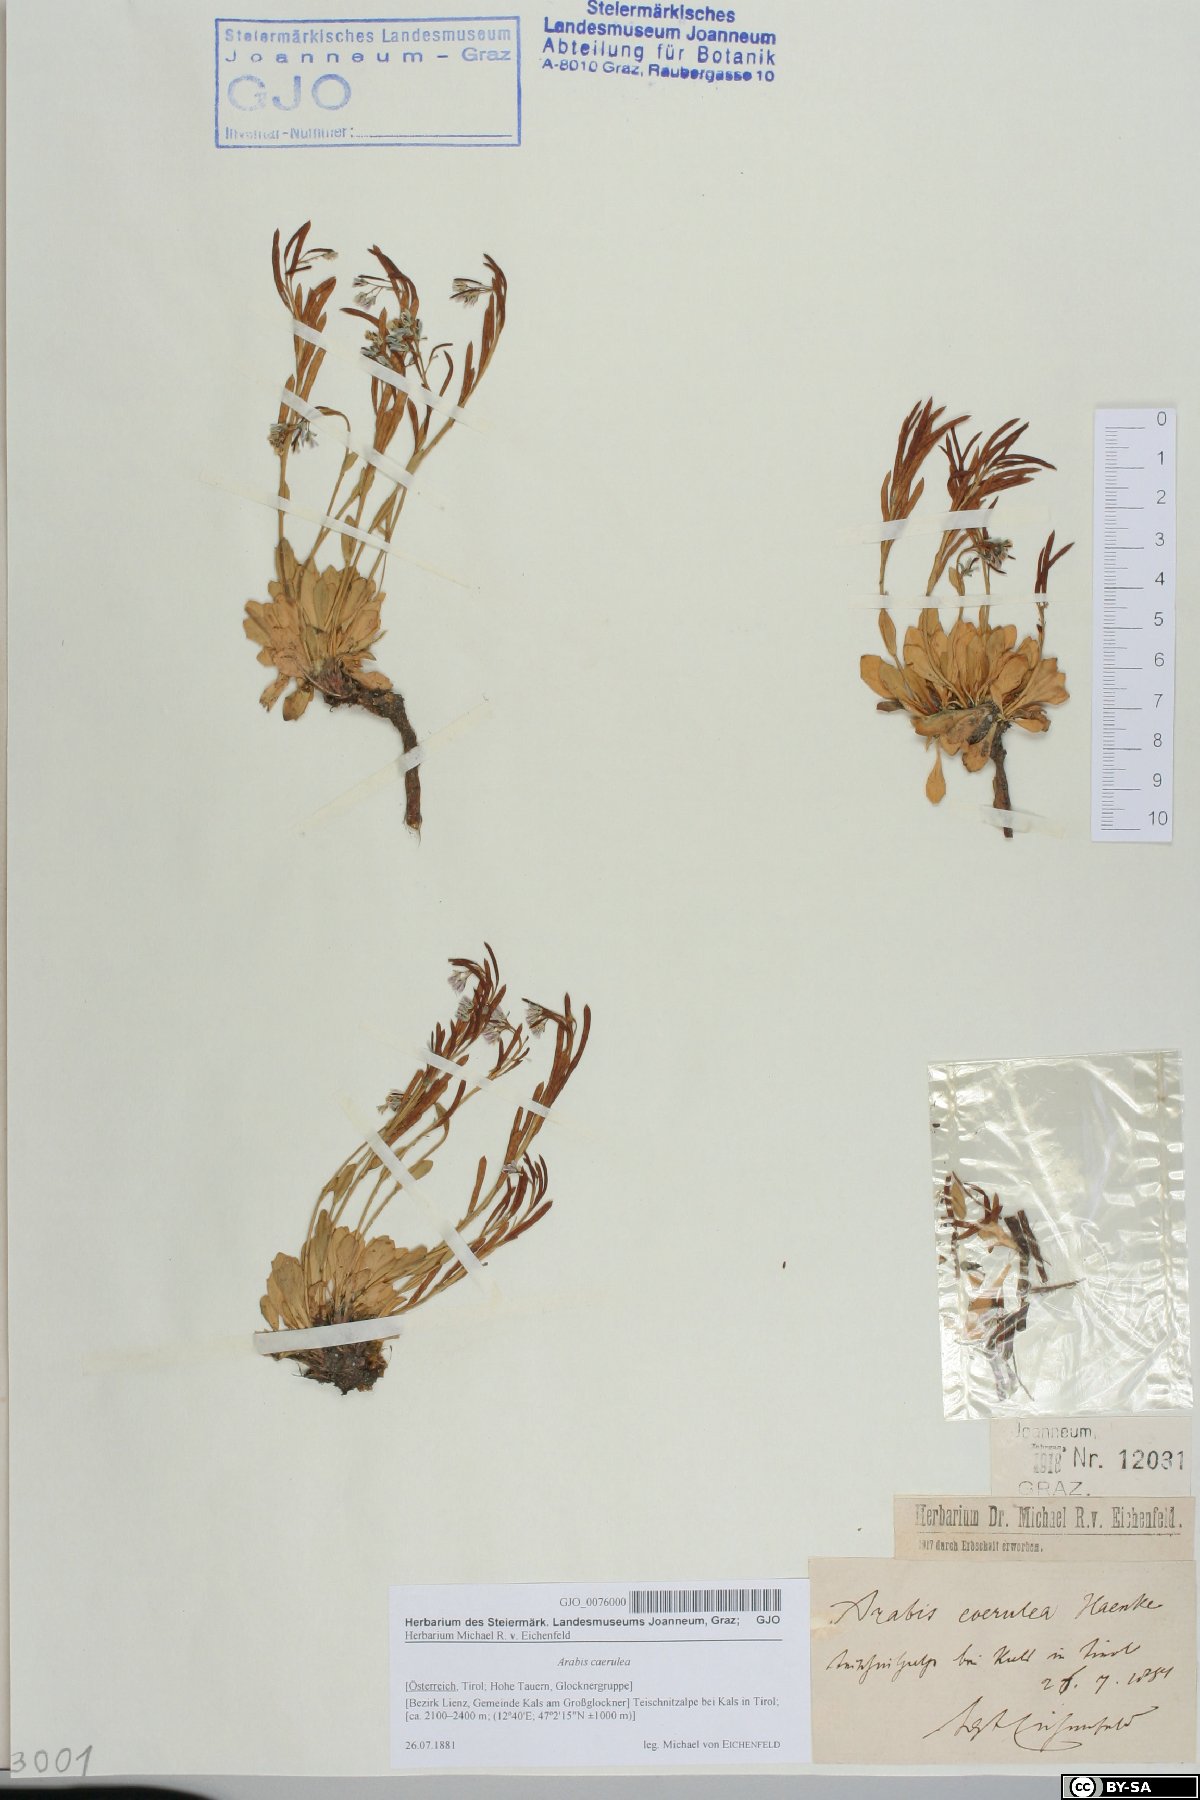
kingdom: Plantae
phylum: Tracheophyta
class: Magnoliopsida
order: Brassicales
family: Brassicaceae
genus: Arabis
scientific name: Arabis caerulea
